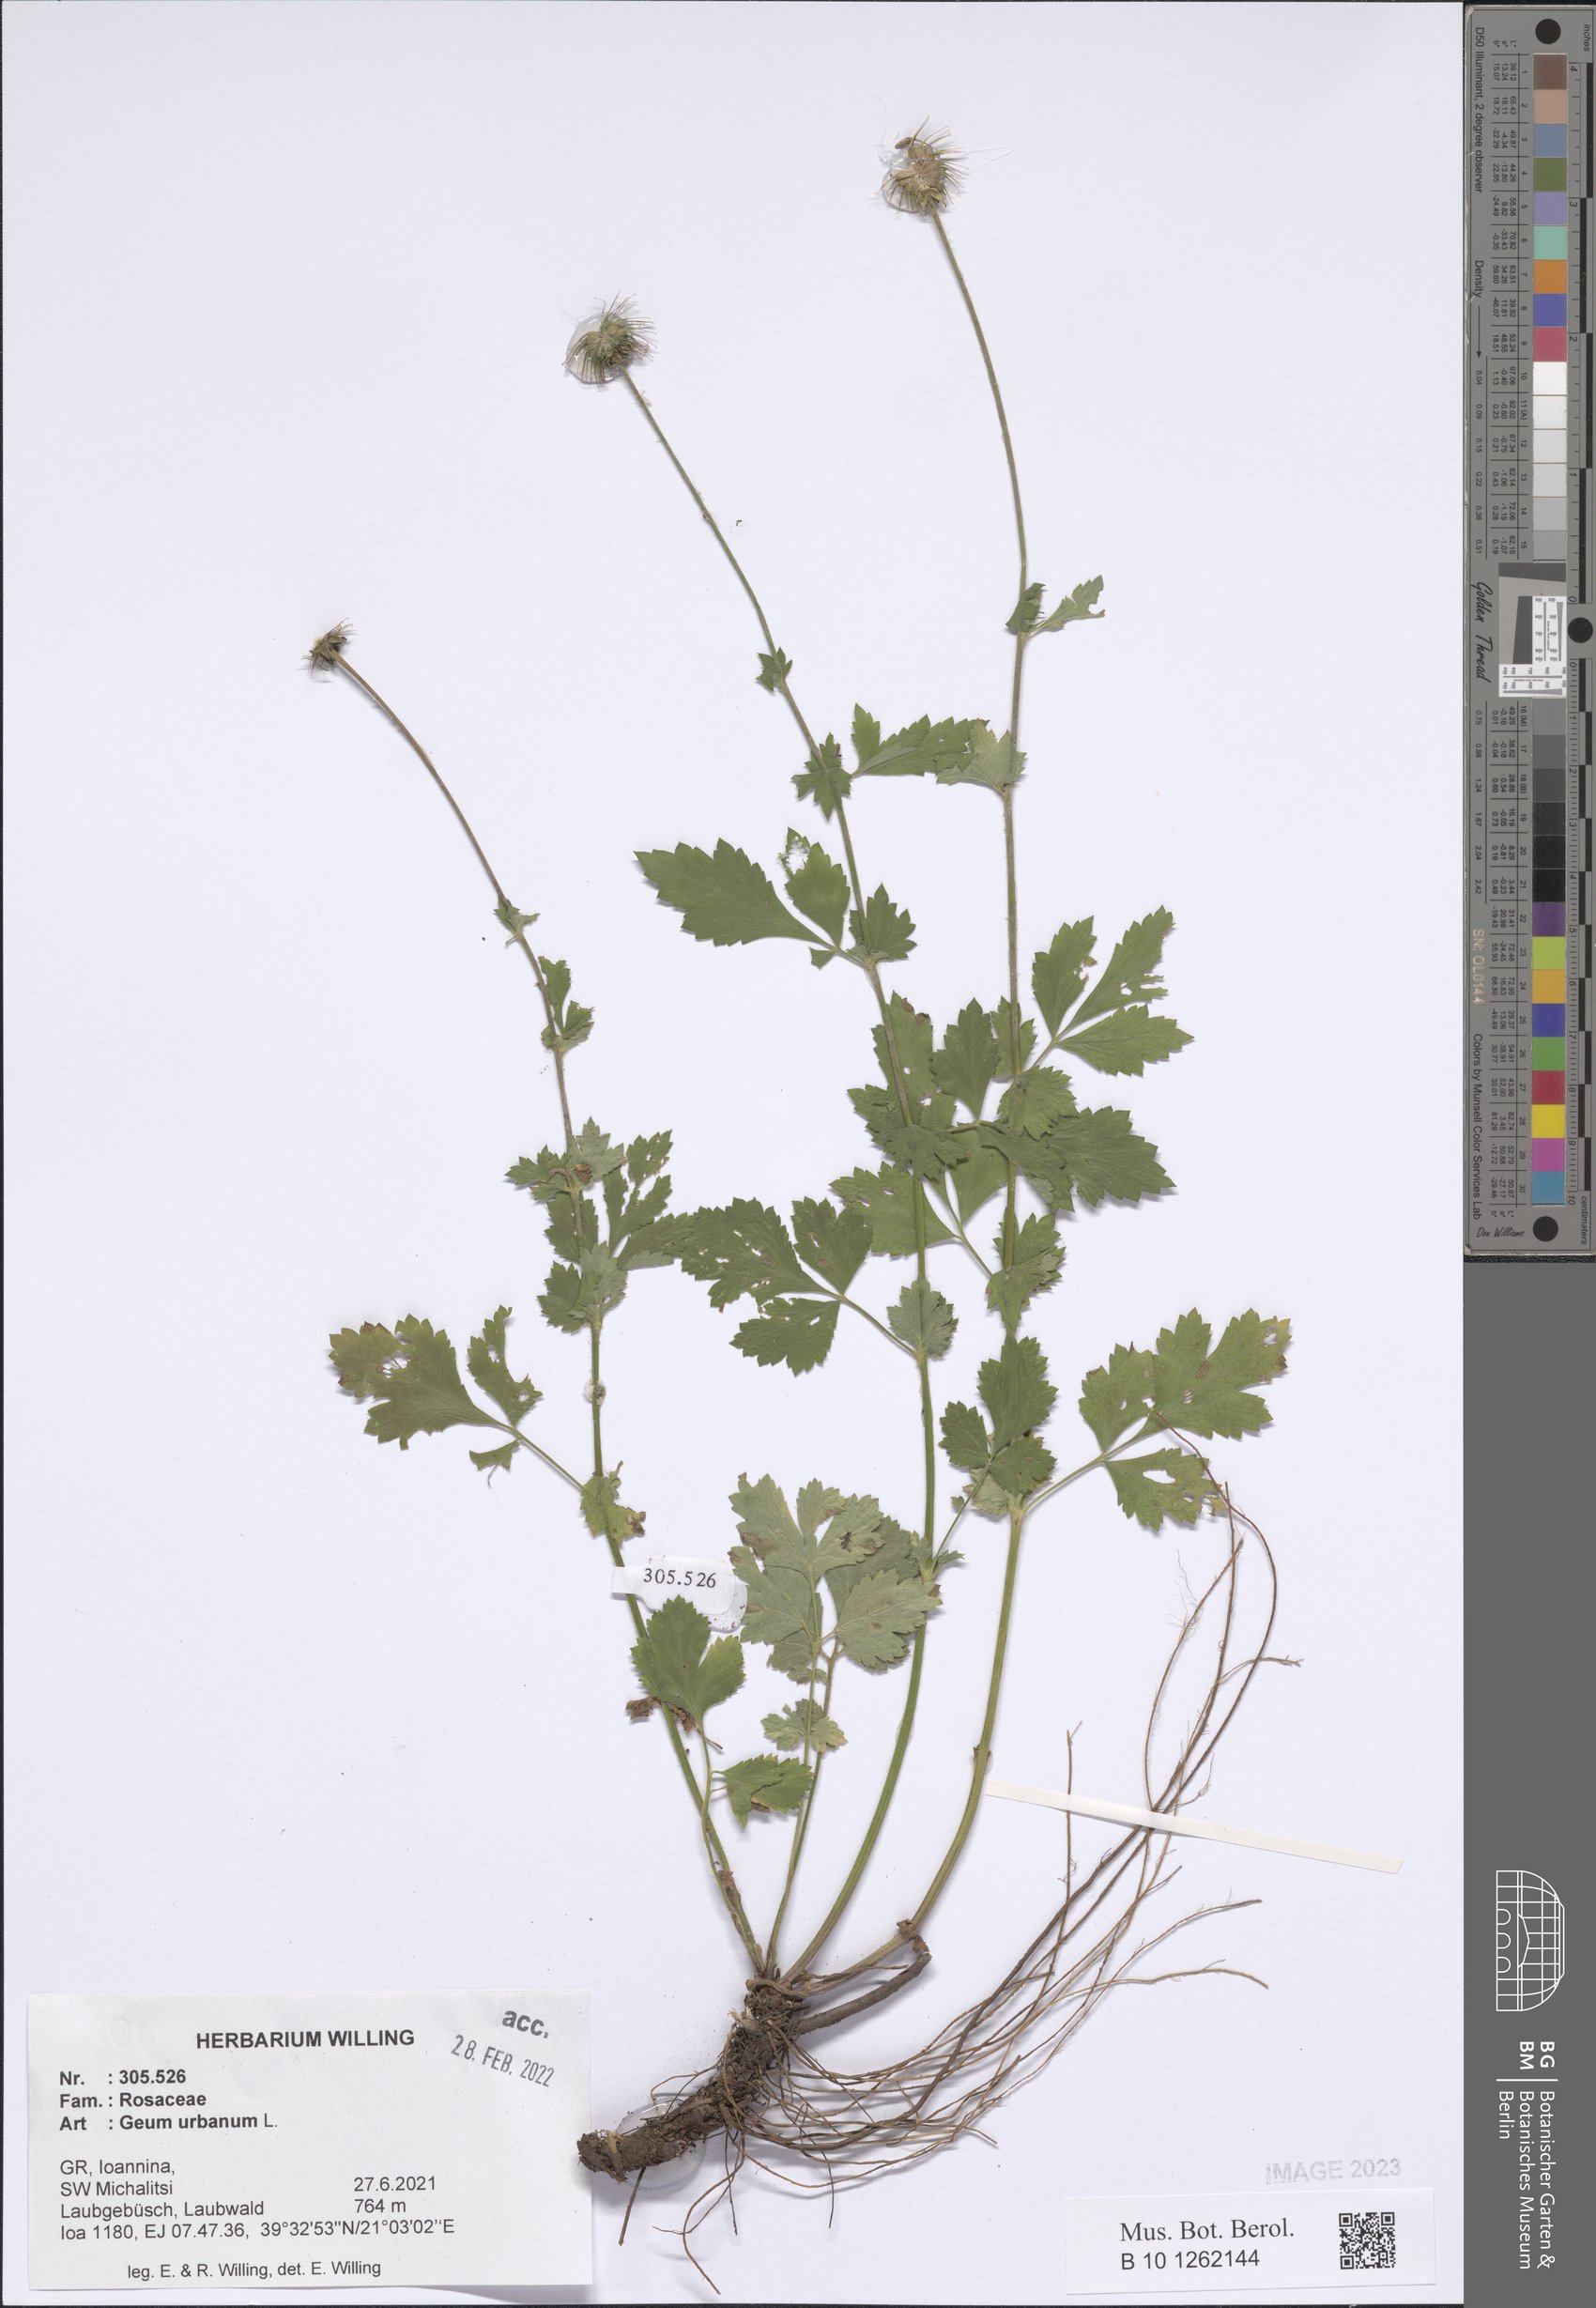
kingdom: Plantae
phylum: Tracheophyta
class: Magnoliopsida
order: Rosales
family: Rosaceae
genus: Geum
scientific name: Geum urbanum
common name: Wood avens
